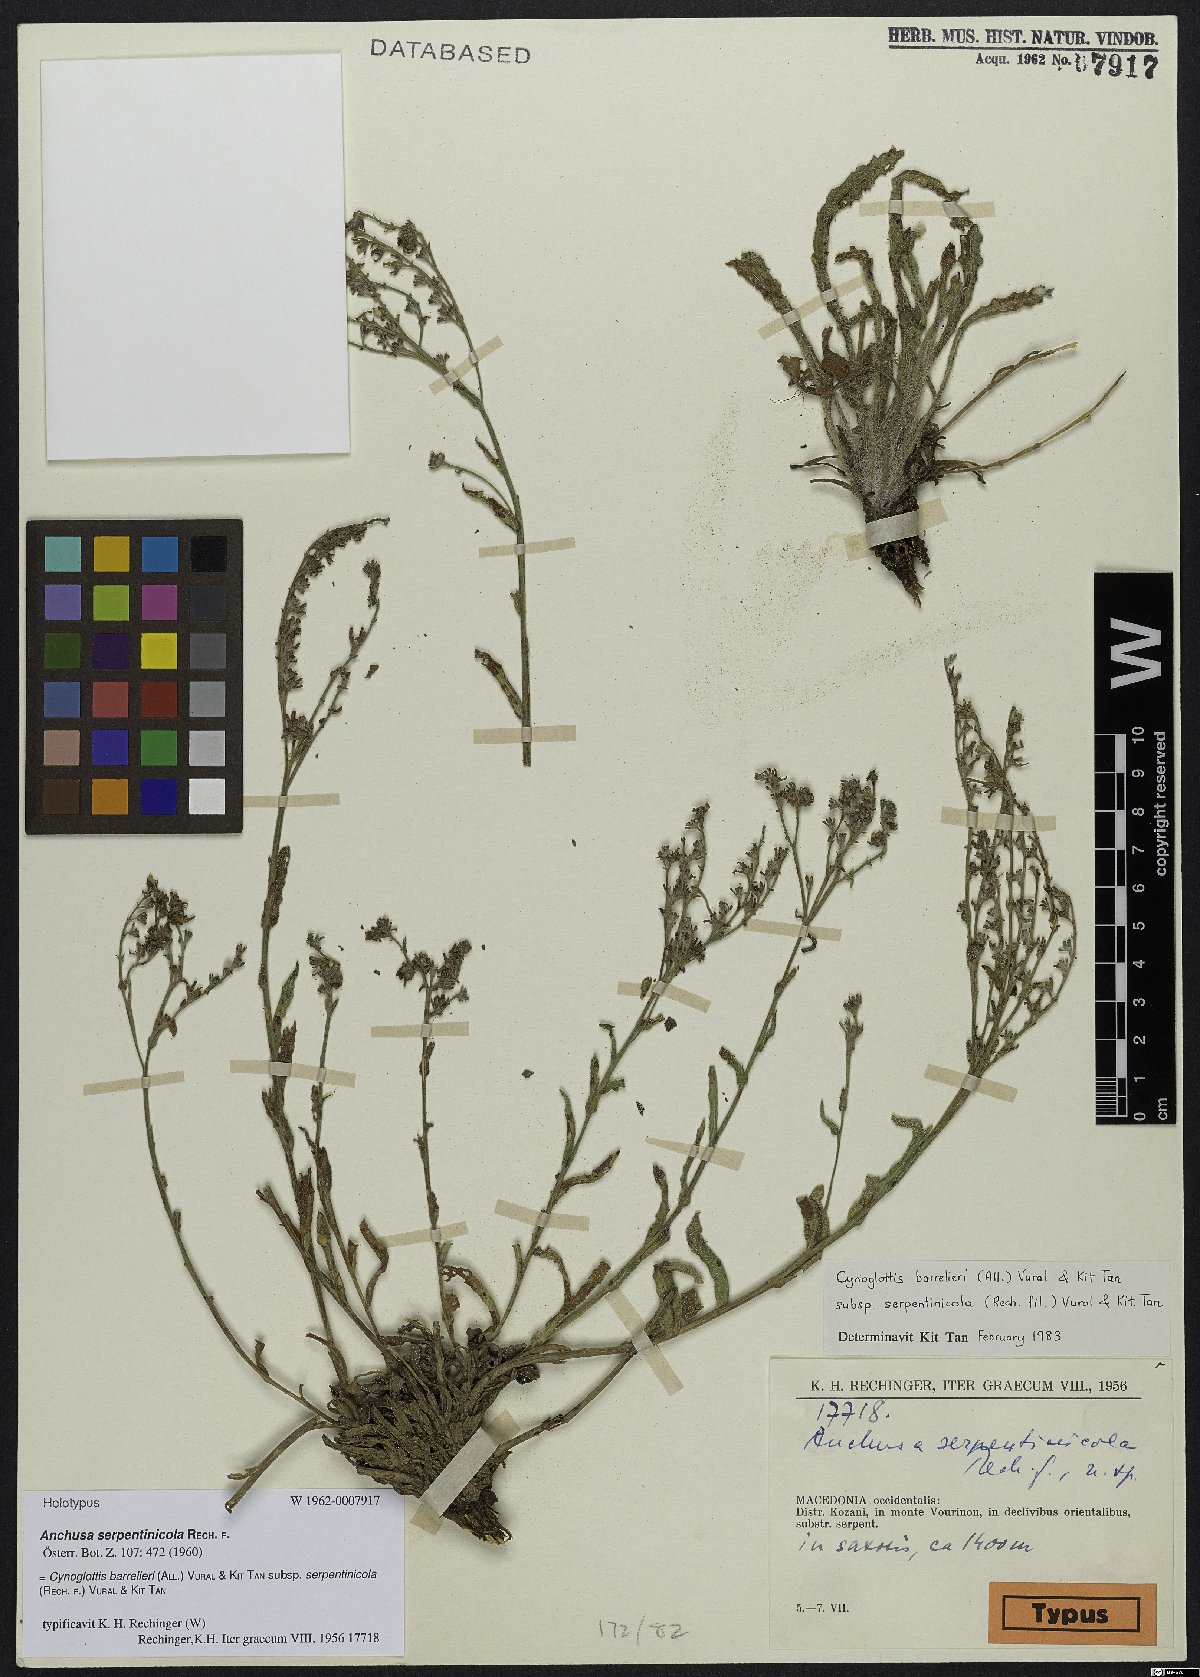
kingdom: Plantae
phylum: Tracheophyta
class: Magnoliopsida
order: Boraginales
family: Boraginaceae
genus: Cynoglottis
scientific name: Cynoglottis barrelieri
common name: False alkanet
